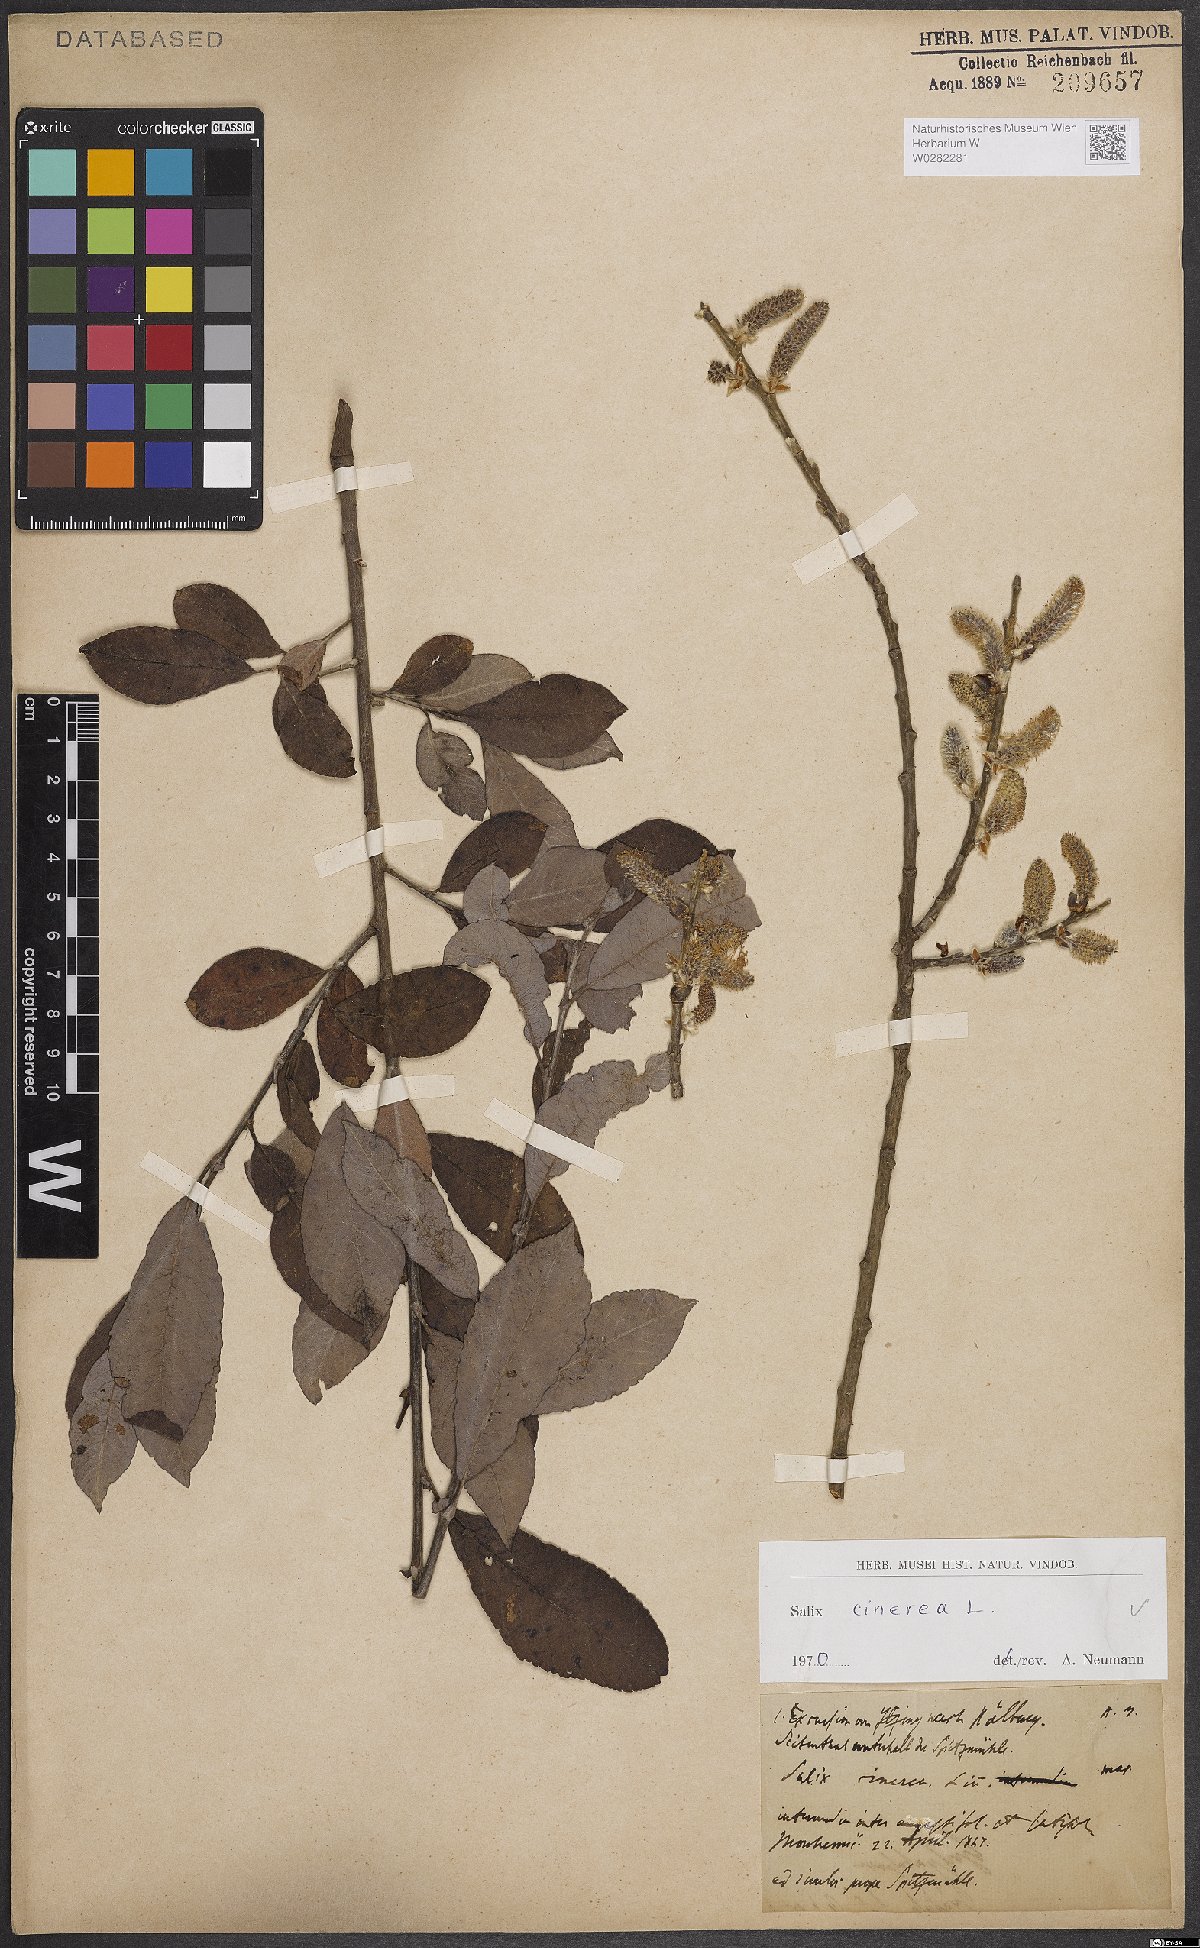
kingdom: Plantae
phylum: Tracheophyta
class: Magnoliopsida
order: Malpighiales
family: Salicaceae
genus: Salix
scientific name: Salix cinerea
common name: Common sallow
